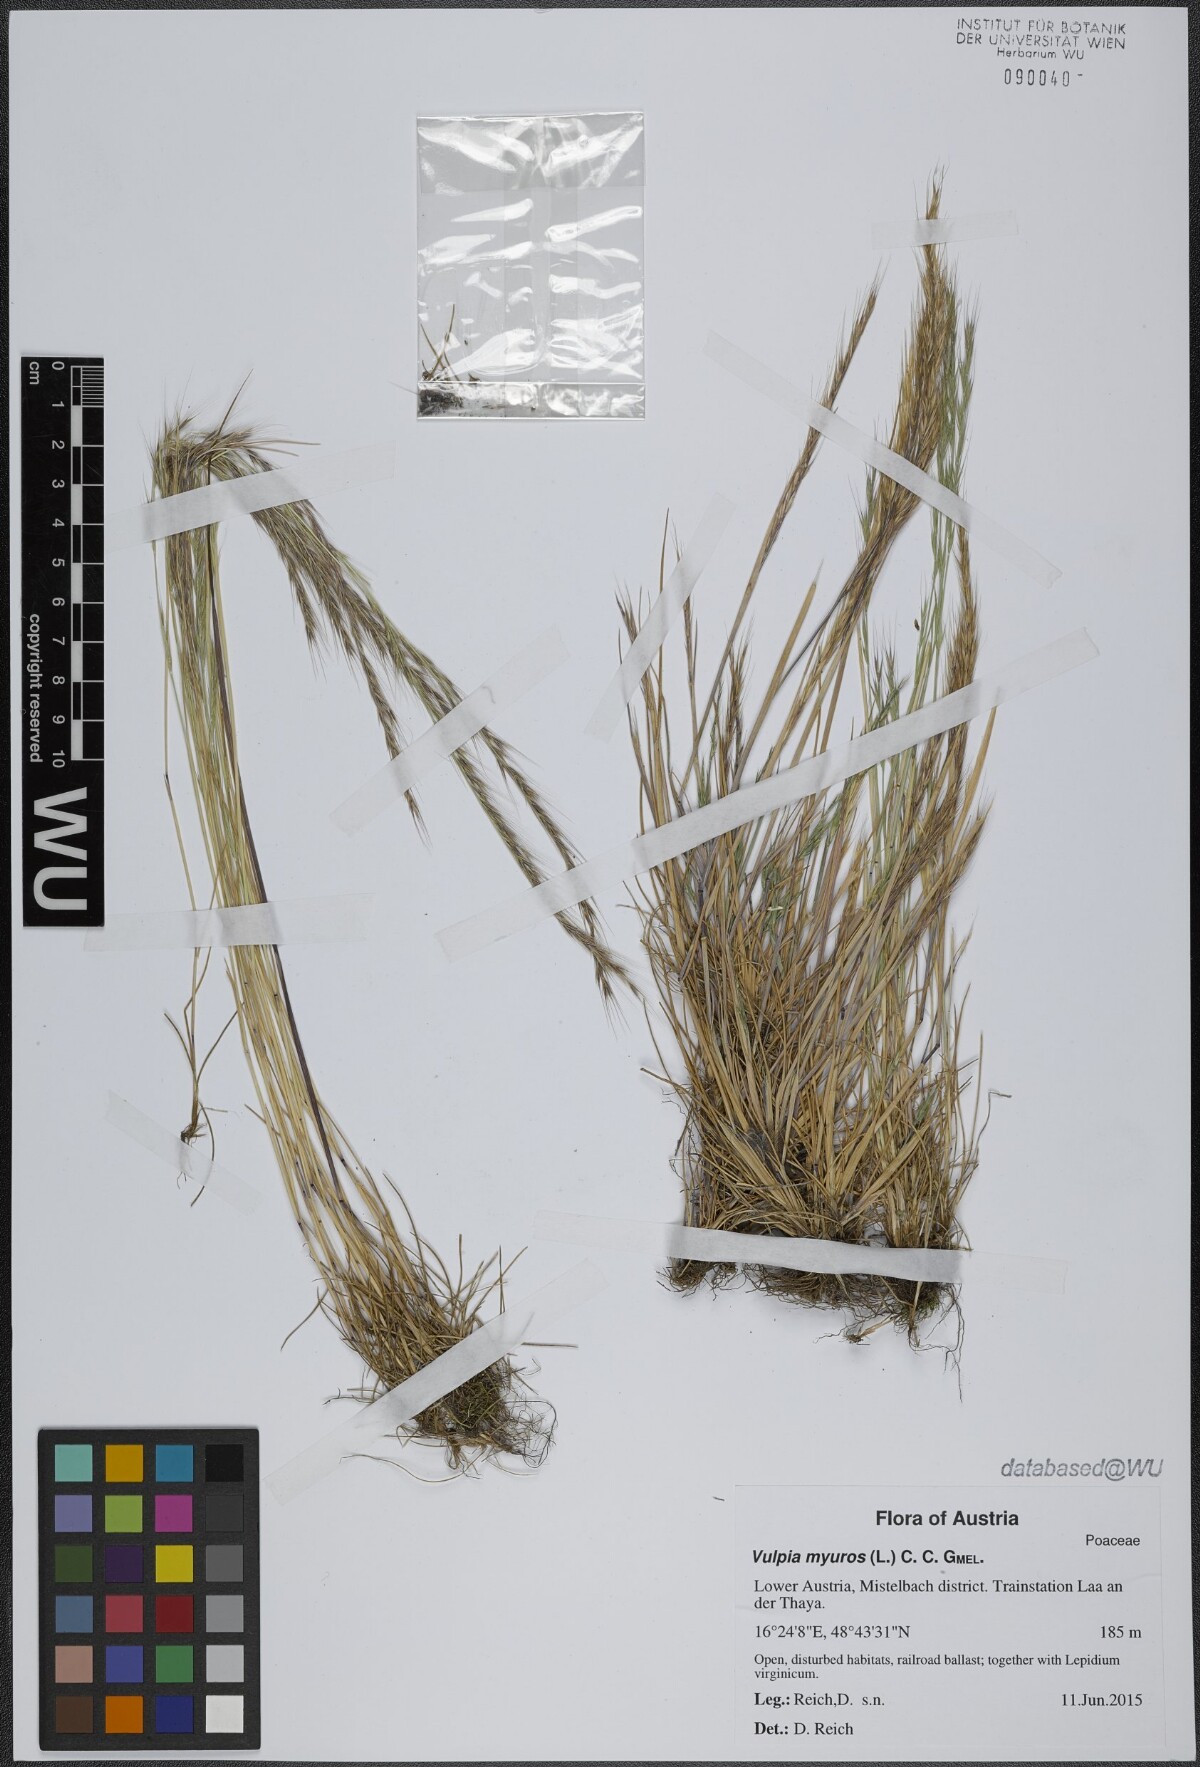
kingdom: Plantae
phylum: Tracheophyta
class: Liliopsida
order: Poales
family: Poaceae
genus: Festuca
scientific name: Festuca myuros
